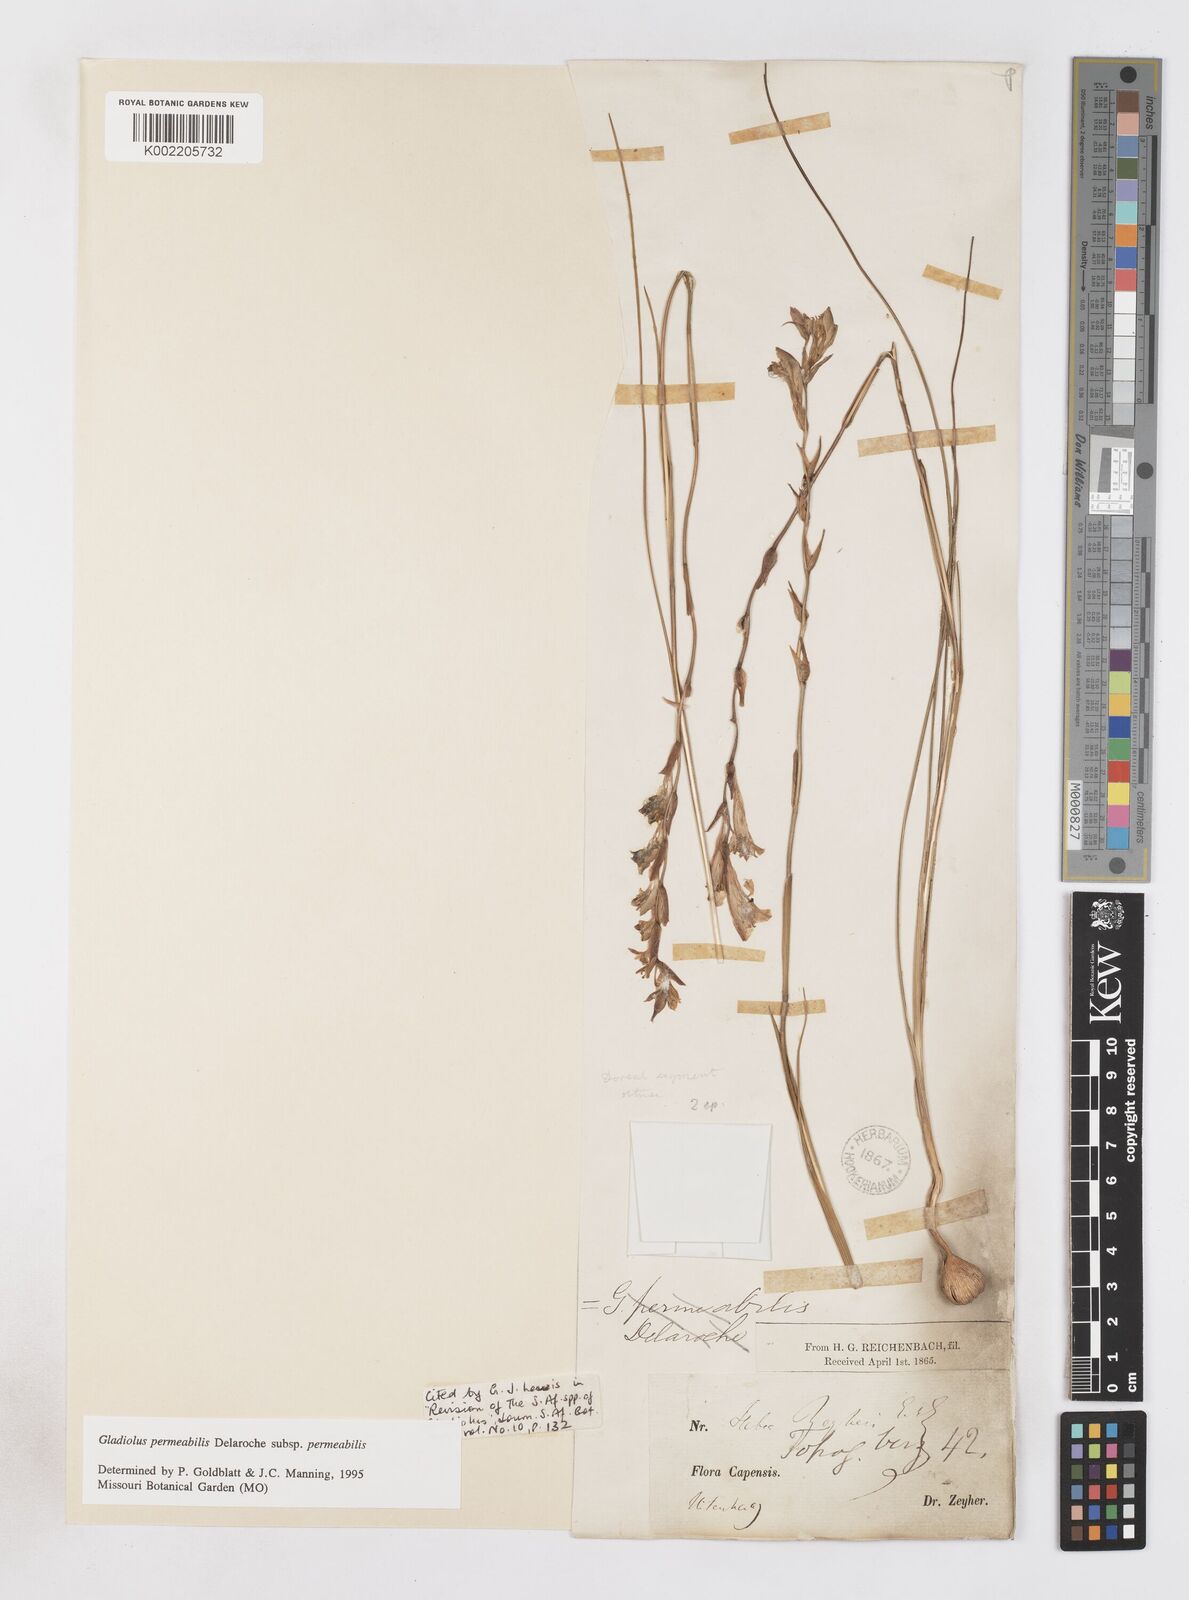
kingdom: Plantae
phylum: Tracheophyta
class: Liliopsida
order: Asparagales
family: Iridaceae
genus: Gladiolus
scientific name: Gladiolus permeabilis
